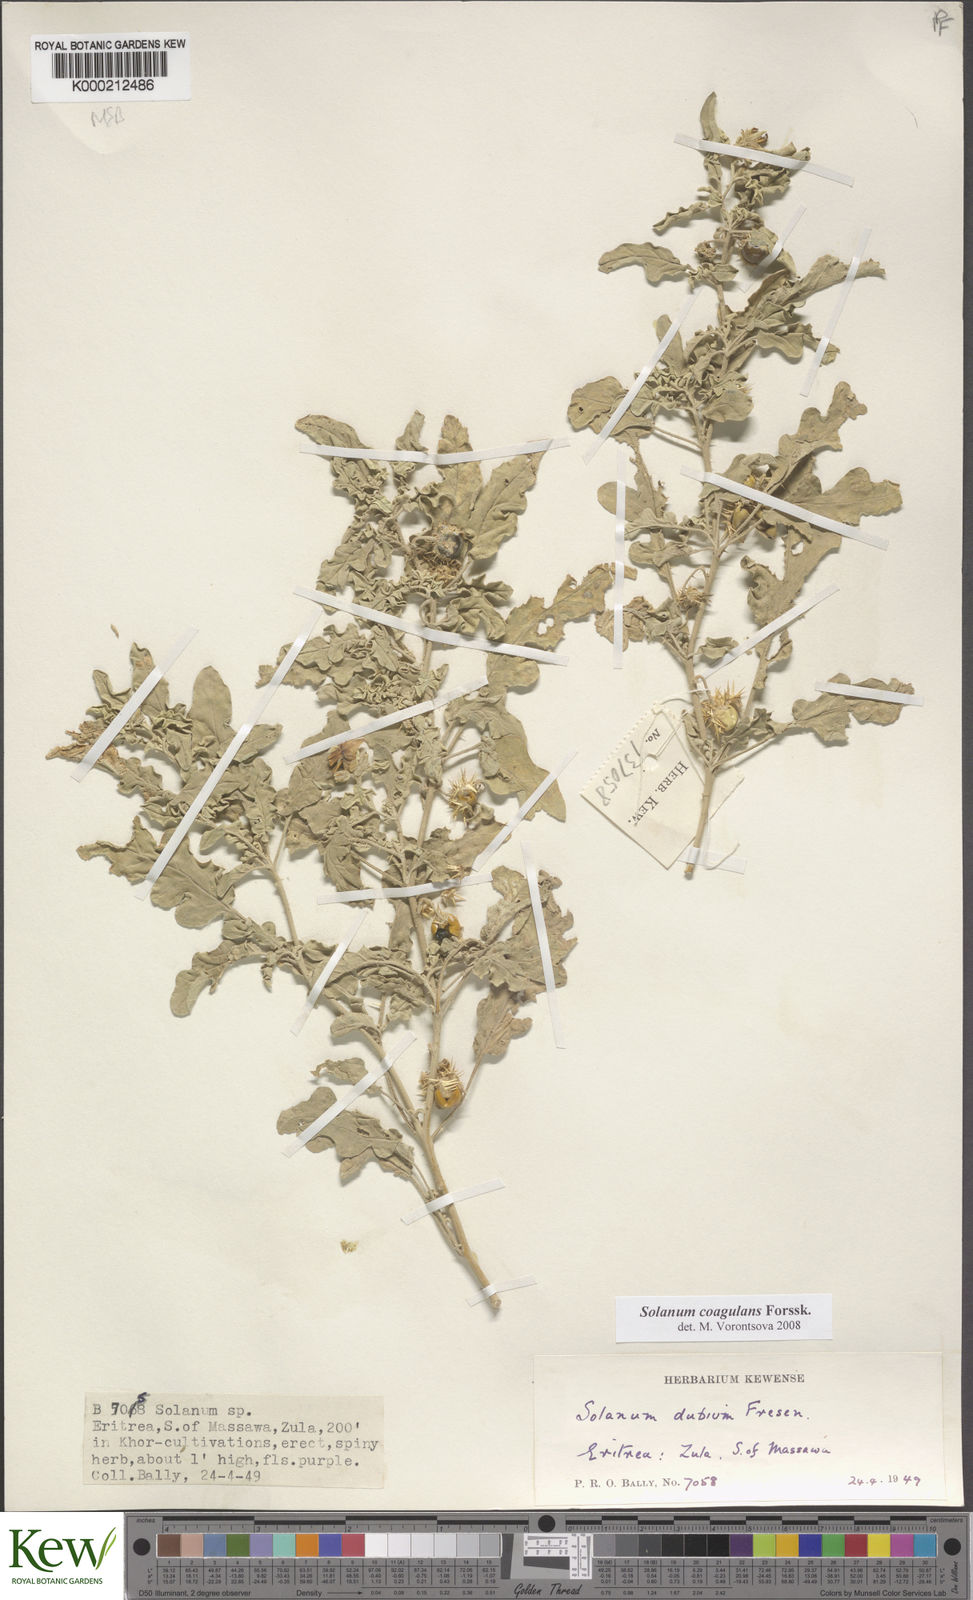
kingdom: Plantae
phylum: Tracheophyta
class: Magnoliopsida
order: Solanales
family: Solanaceae
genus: Solanum
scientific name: Solanum coagulans
